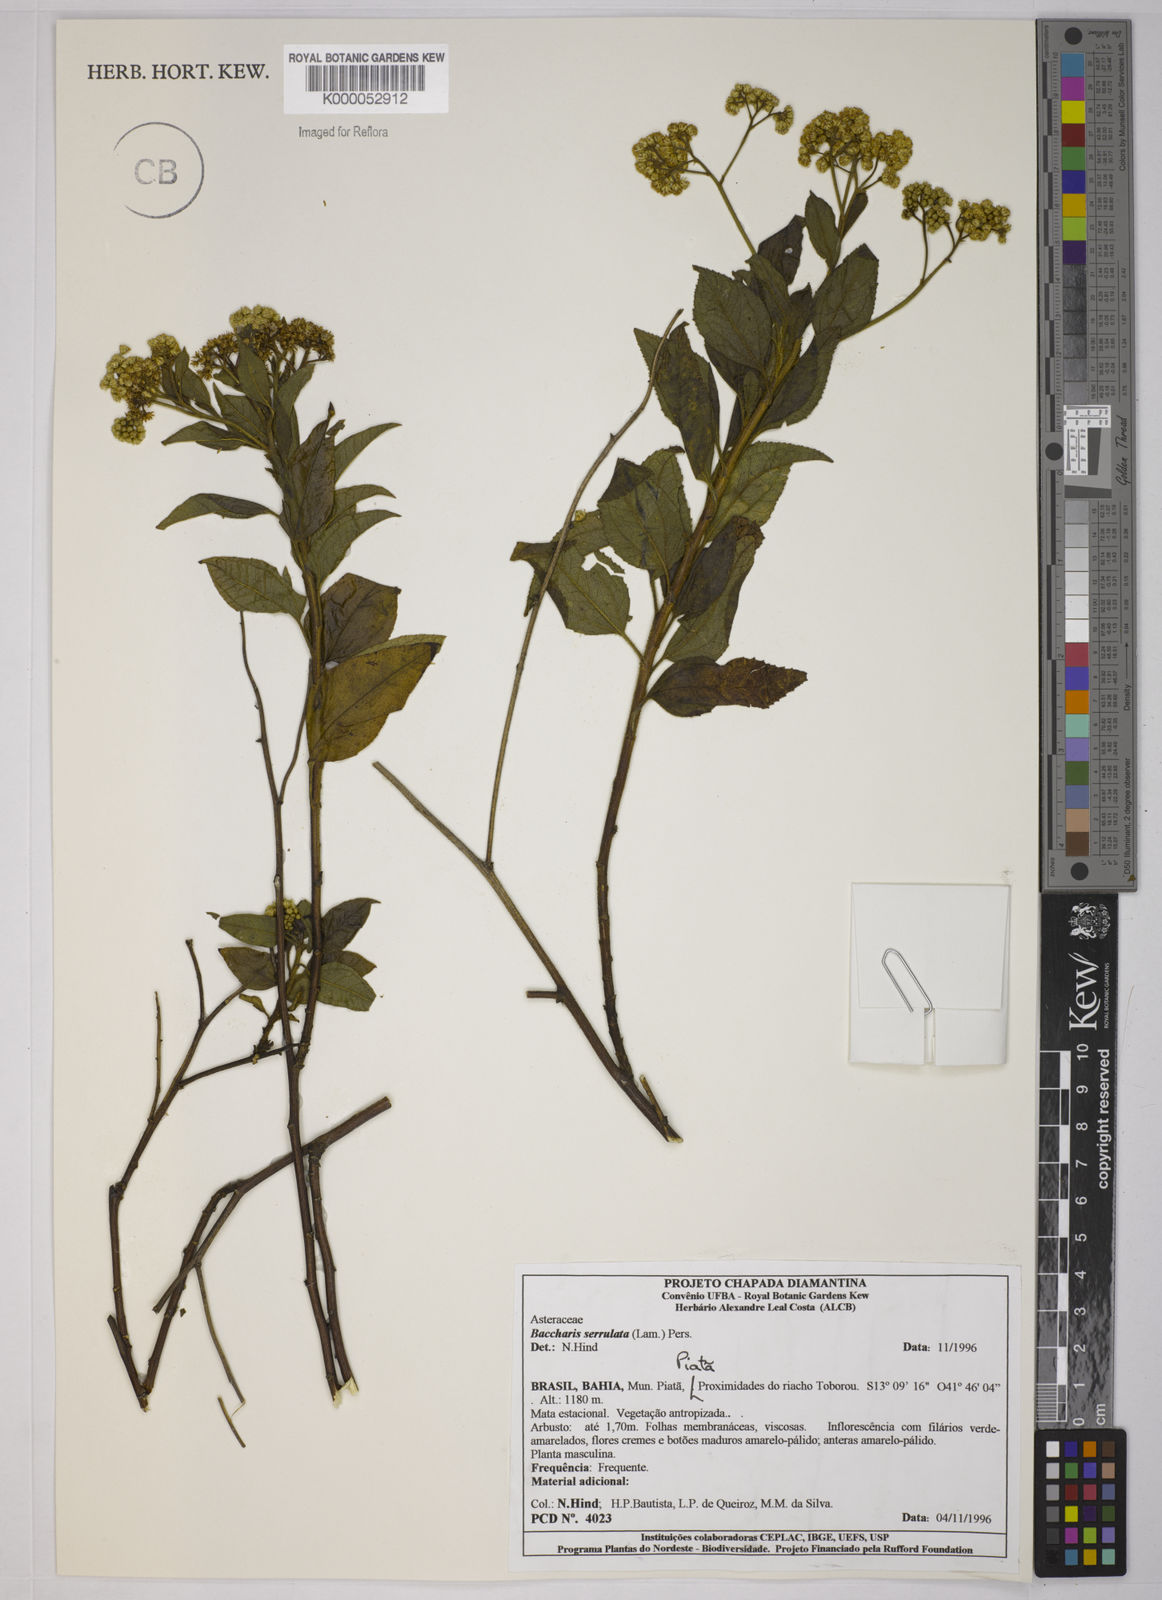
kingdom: Plantae
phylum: Tracheophyta
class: Magnoliopsida
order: Asterales
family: Asteraceae
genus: Baccharis
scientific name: Baccharis serrulata
